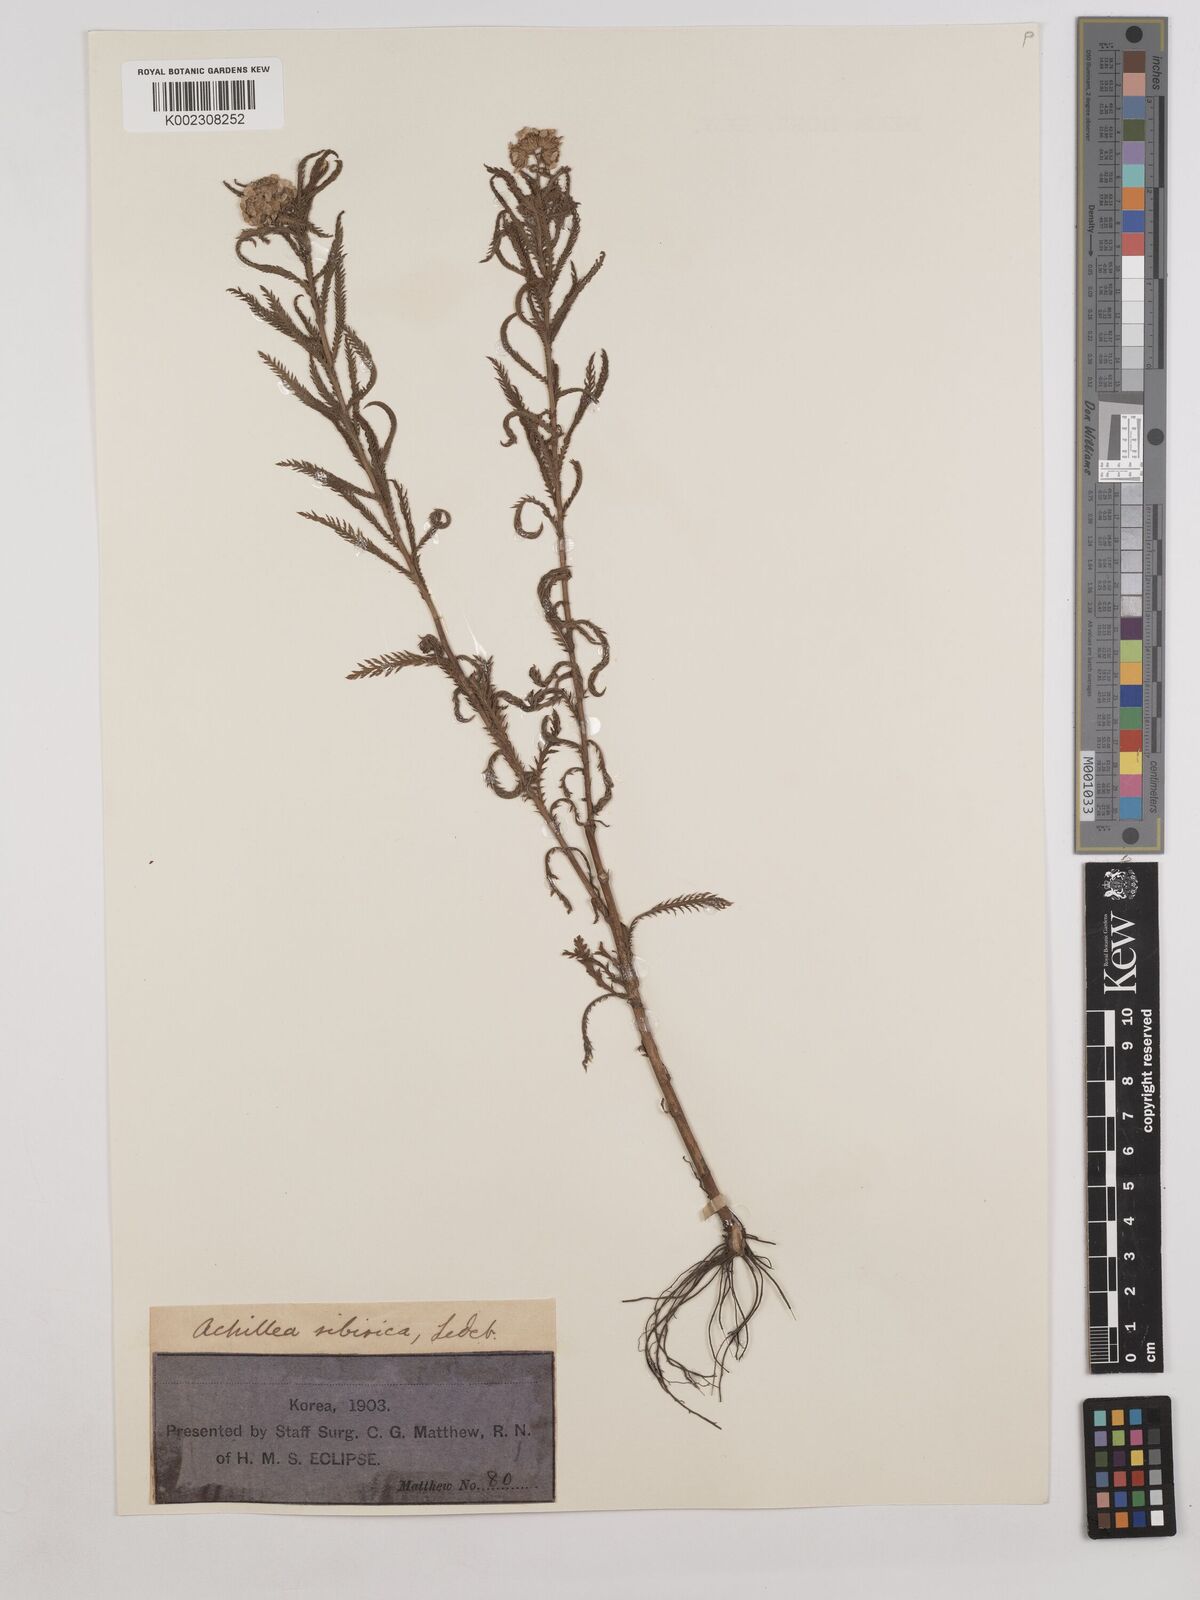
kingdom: Plantae
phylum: Tracheophyta
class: Magnoliopsida
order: Asterales
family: Asteraceae
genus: Achillea
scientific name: Achillea alpina
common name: Siberian yarrow
